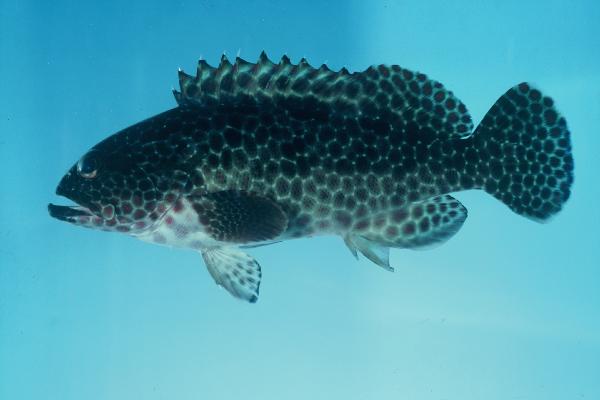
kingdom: Animalia
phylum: Chordata
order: Perciformes
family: Serranidae
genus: Epinephelus
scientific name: Epinephelus hexagonatus
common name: Hexagon grouper
